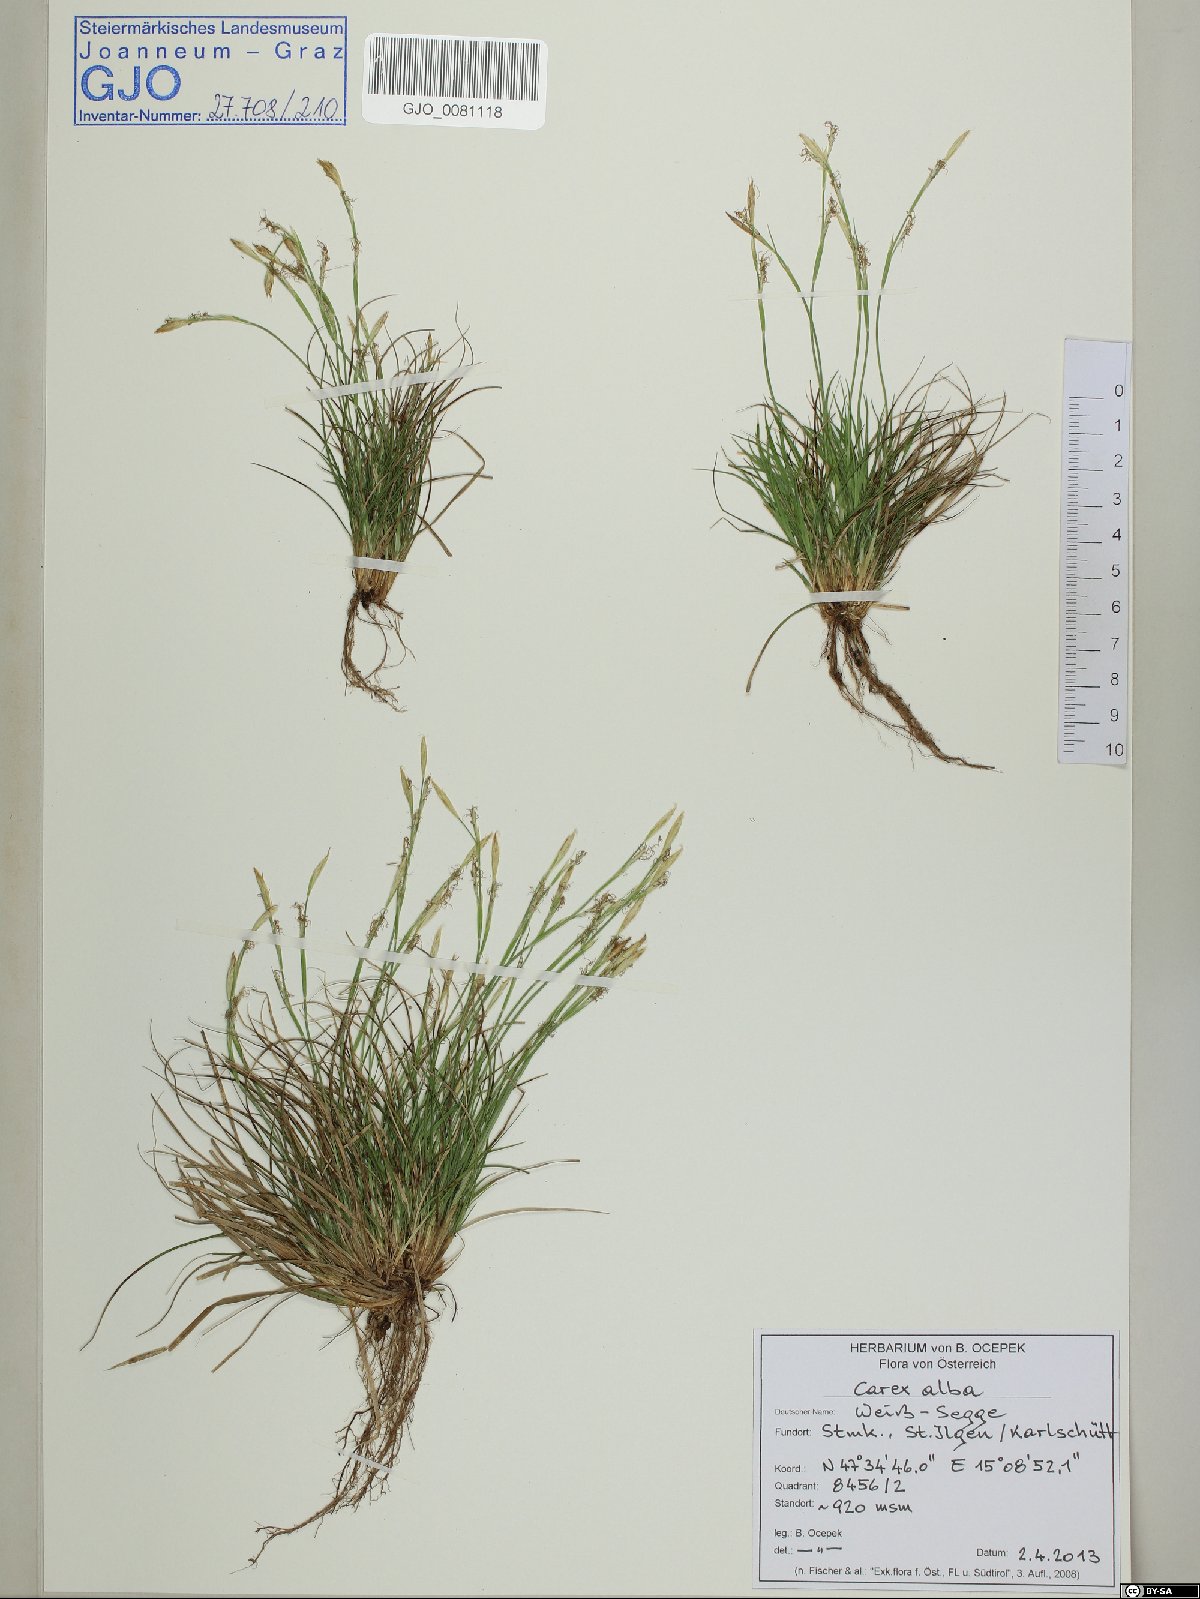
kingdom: Plantae
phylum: Tracheophyta
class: Liliopsida
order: Poales
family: Cyperaceae
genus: Carex
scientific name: Carex alba
